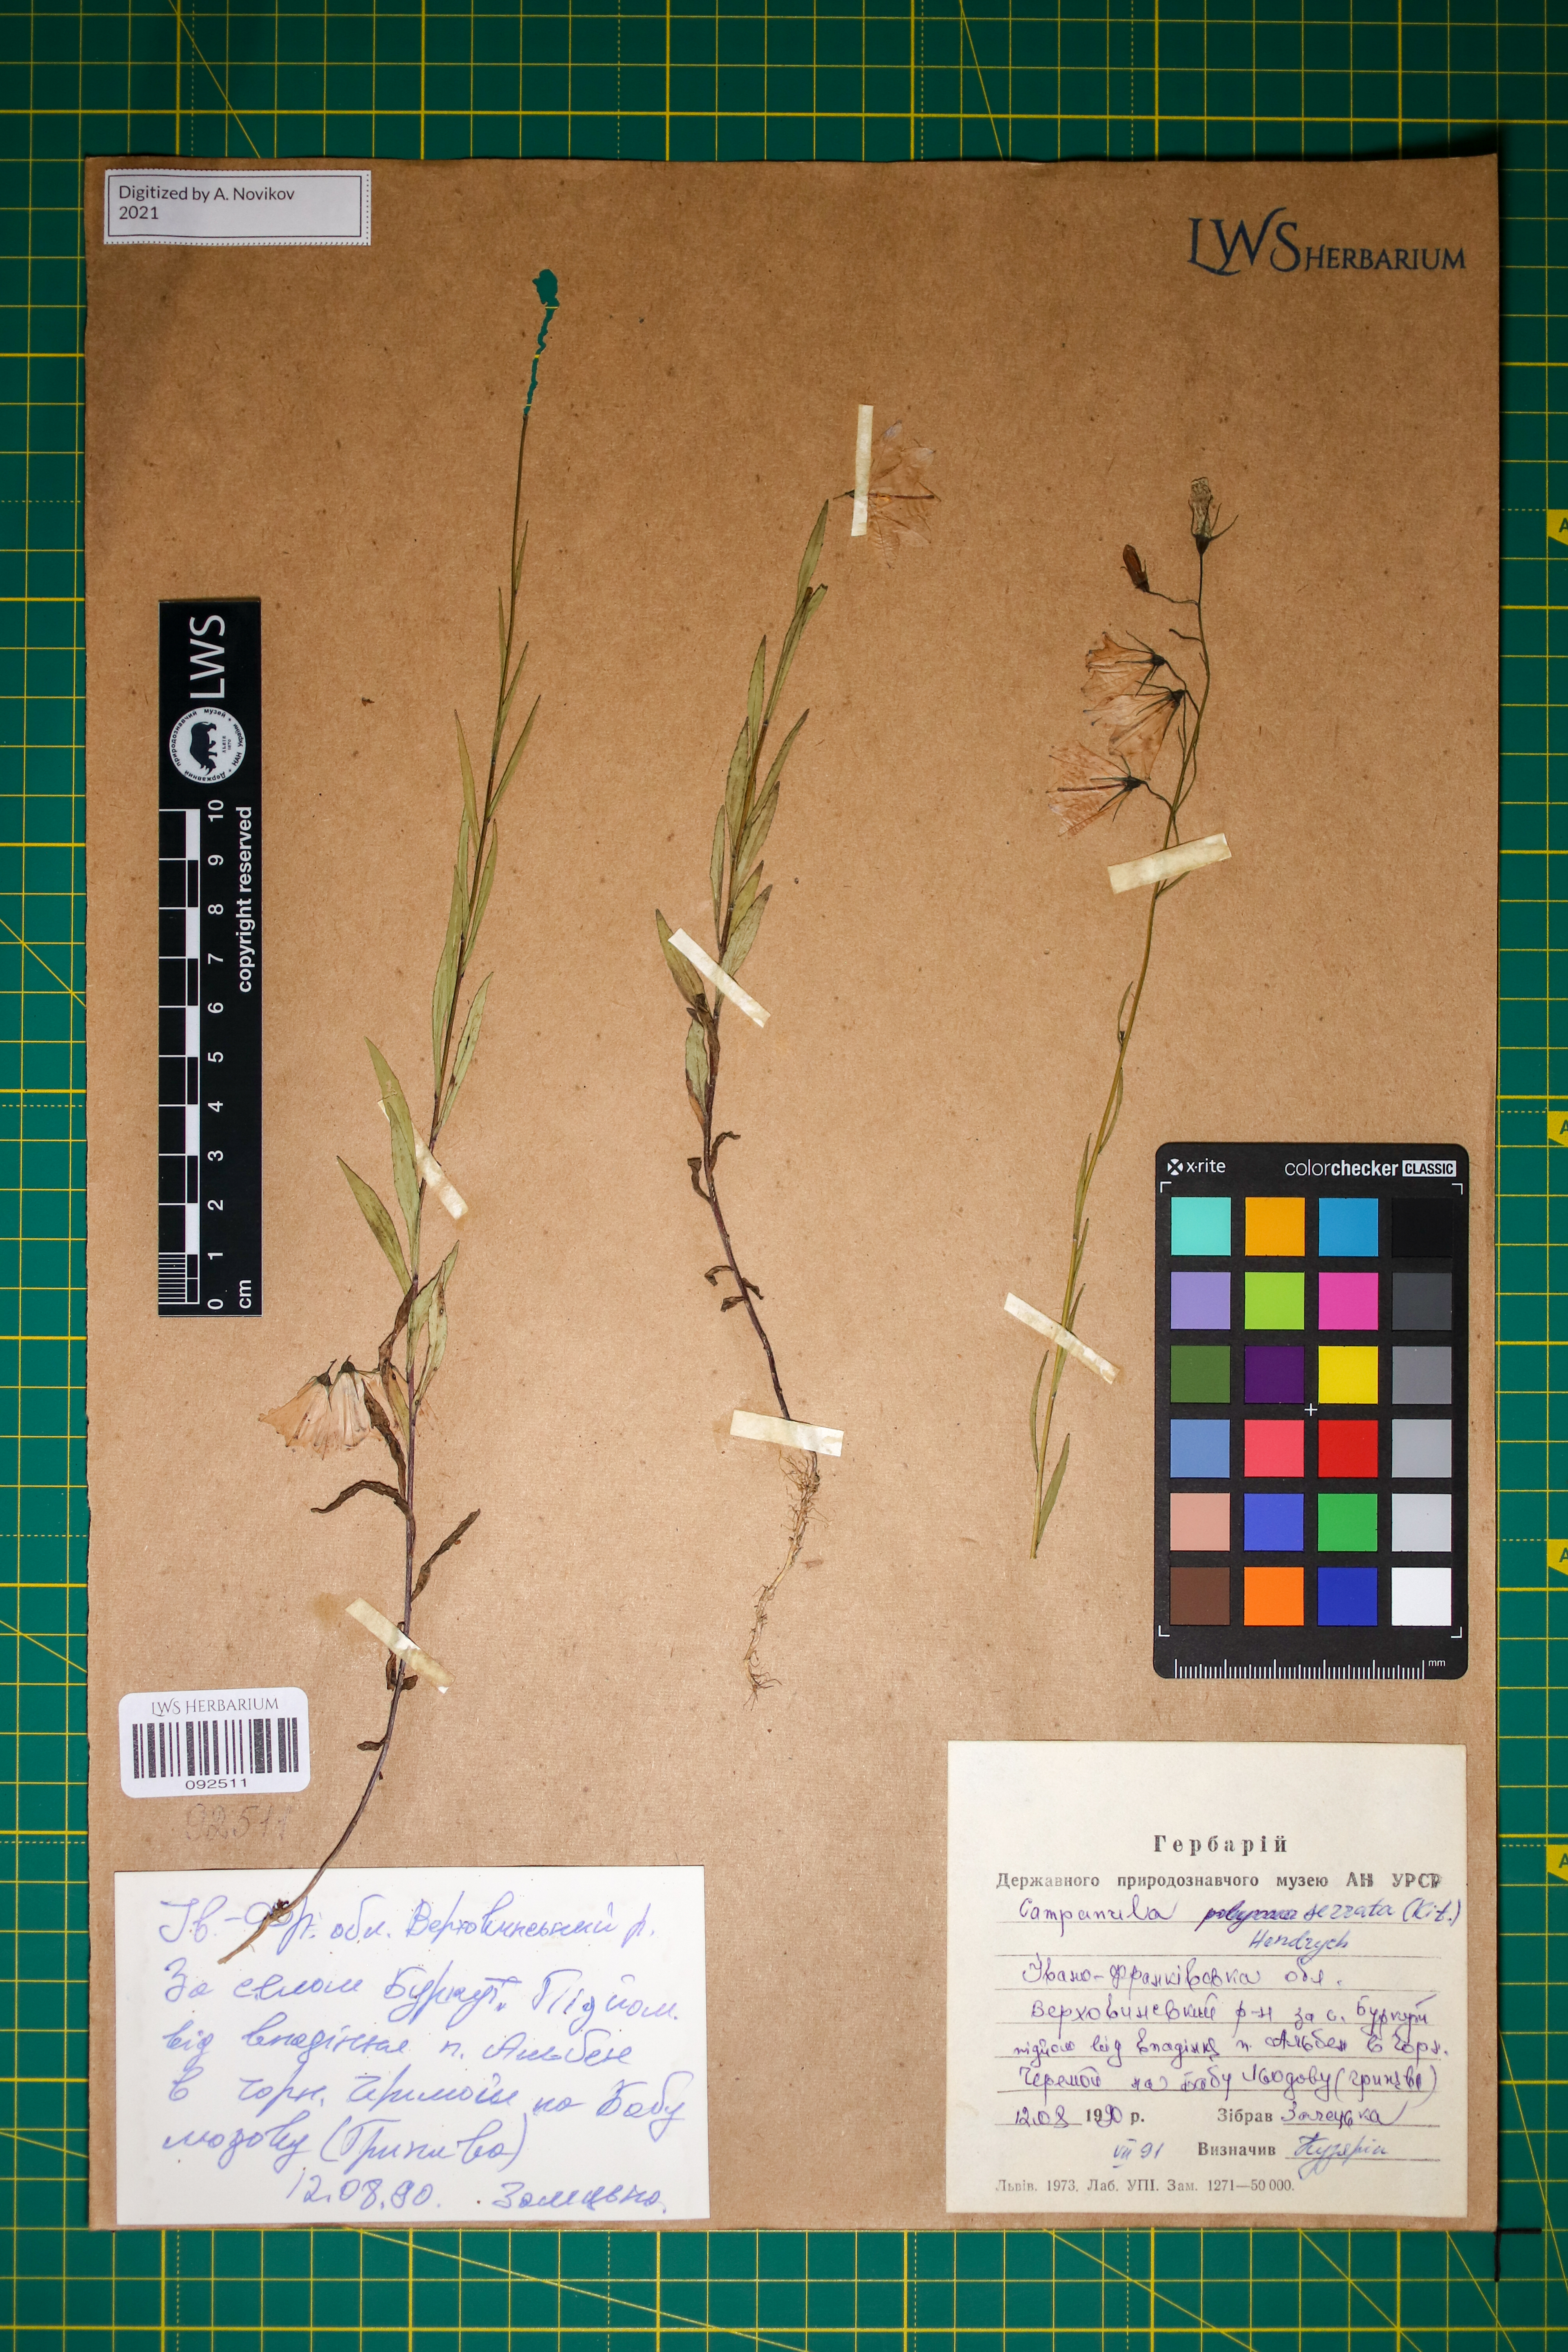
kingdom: Plantae
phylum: Tracheophyta
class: Magnoliopsida
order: Asterales
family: Campanulaceae
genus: Campanula
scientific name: Campanula serrata
